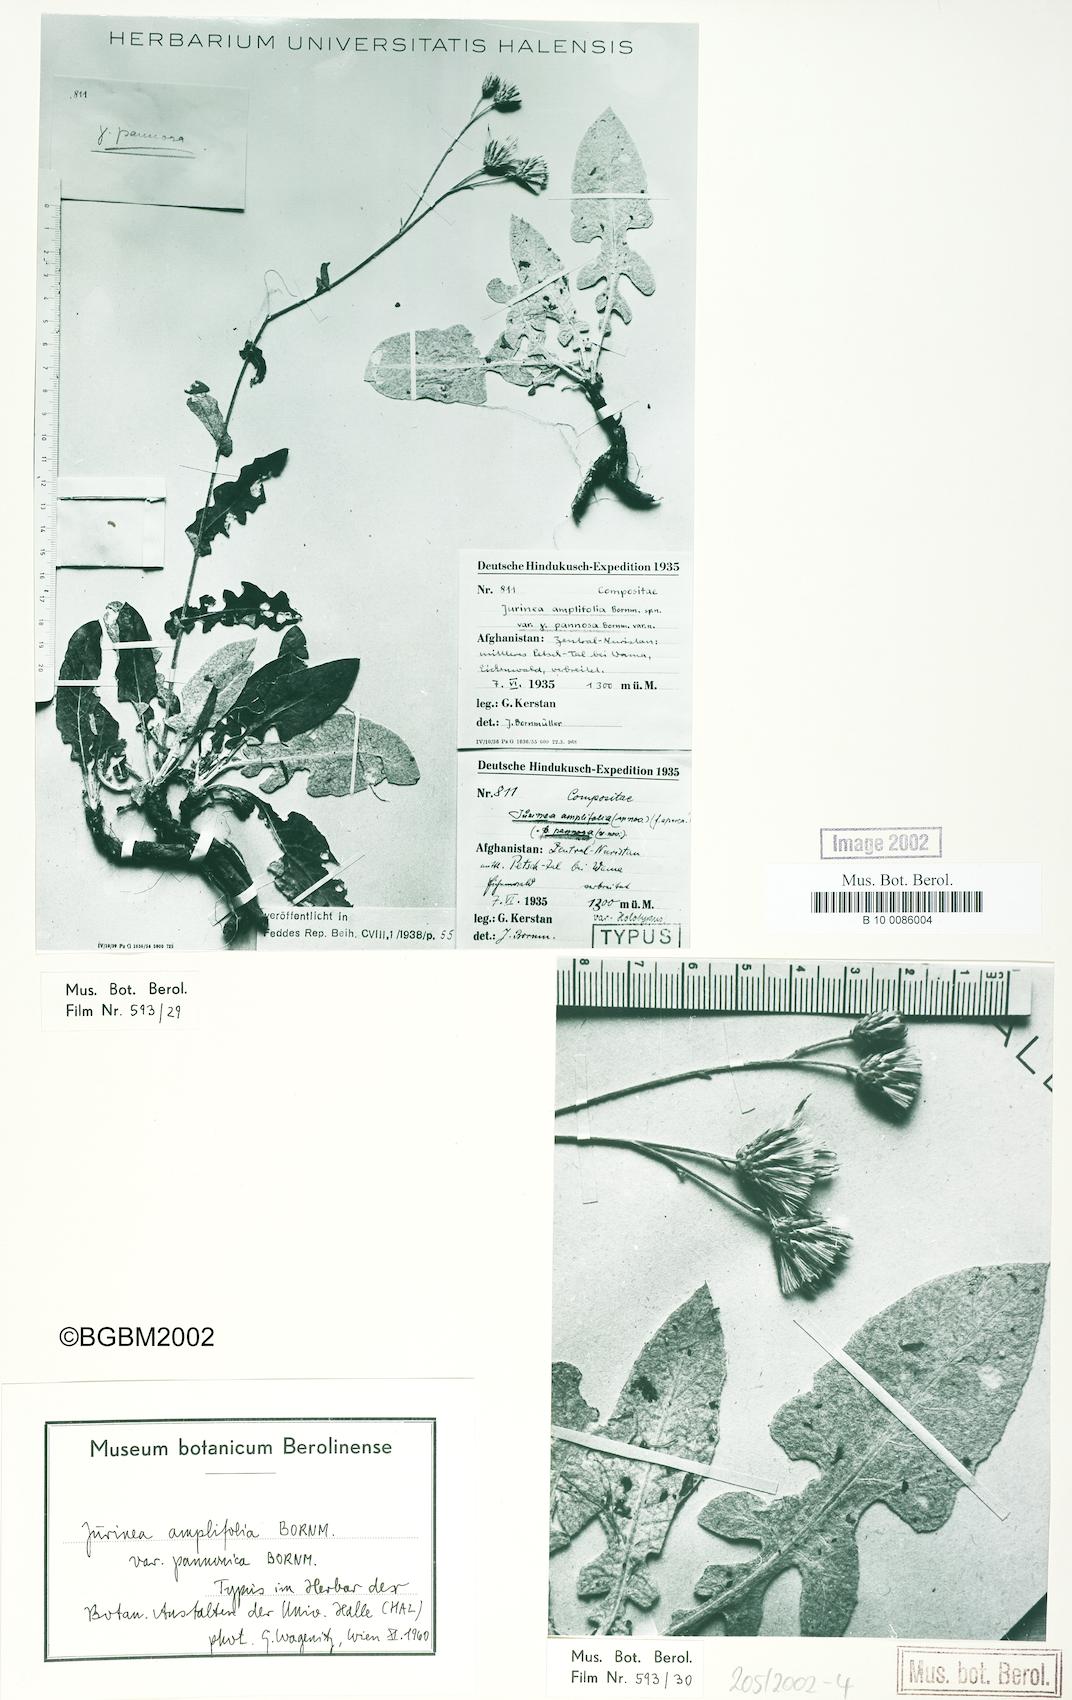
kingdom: Plantae
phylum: Tracheophyta
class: Magnoliopsida
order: Asterales
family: Asteraceae
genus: Saussurea
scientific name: Saussurea afghana
